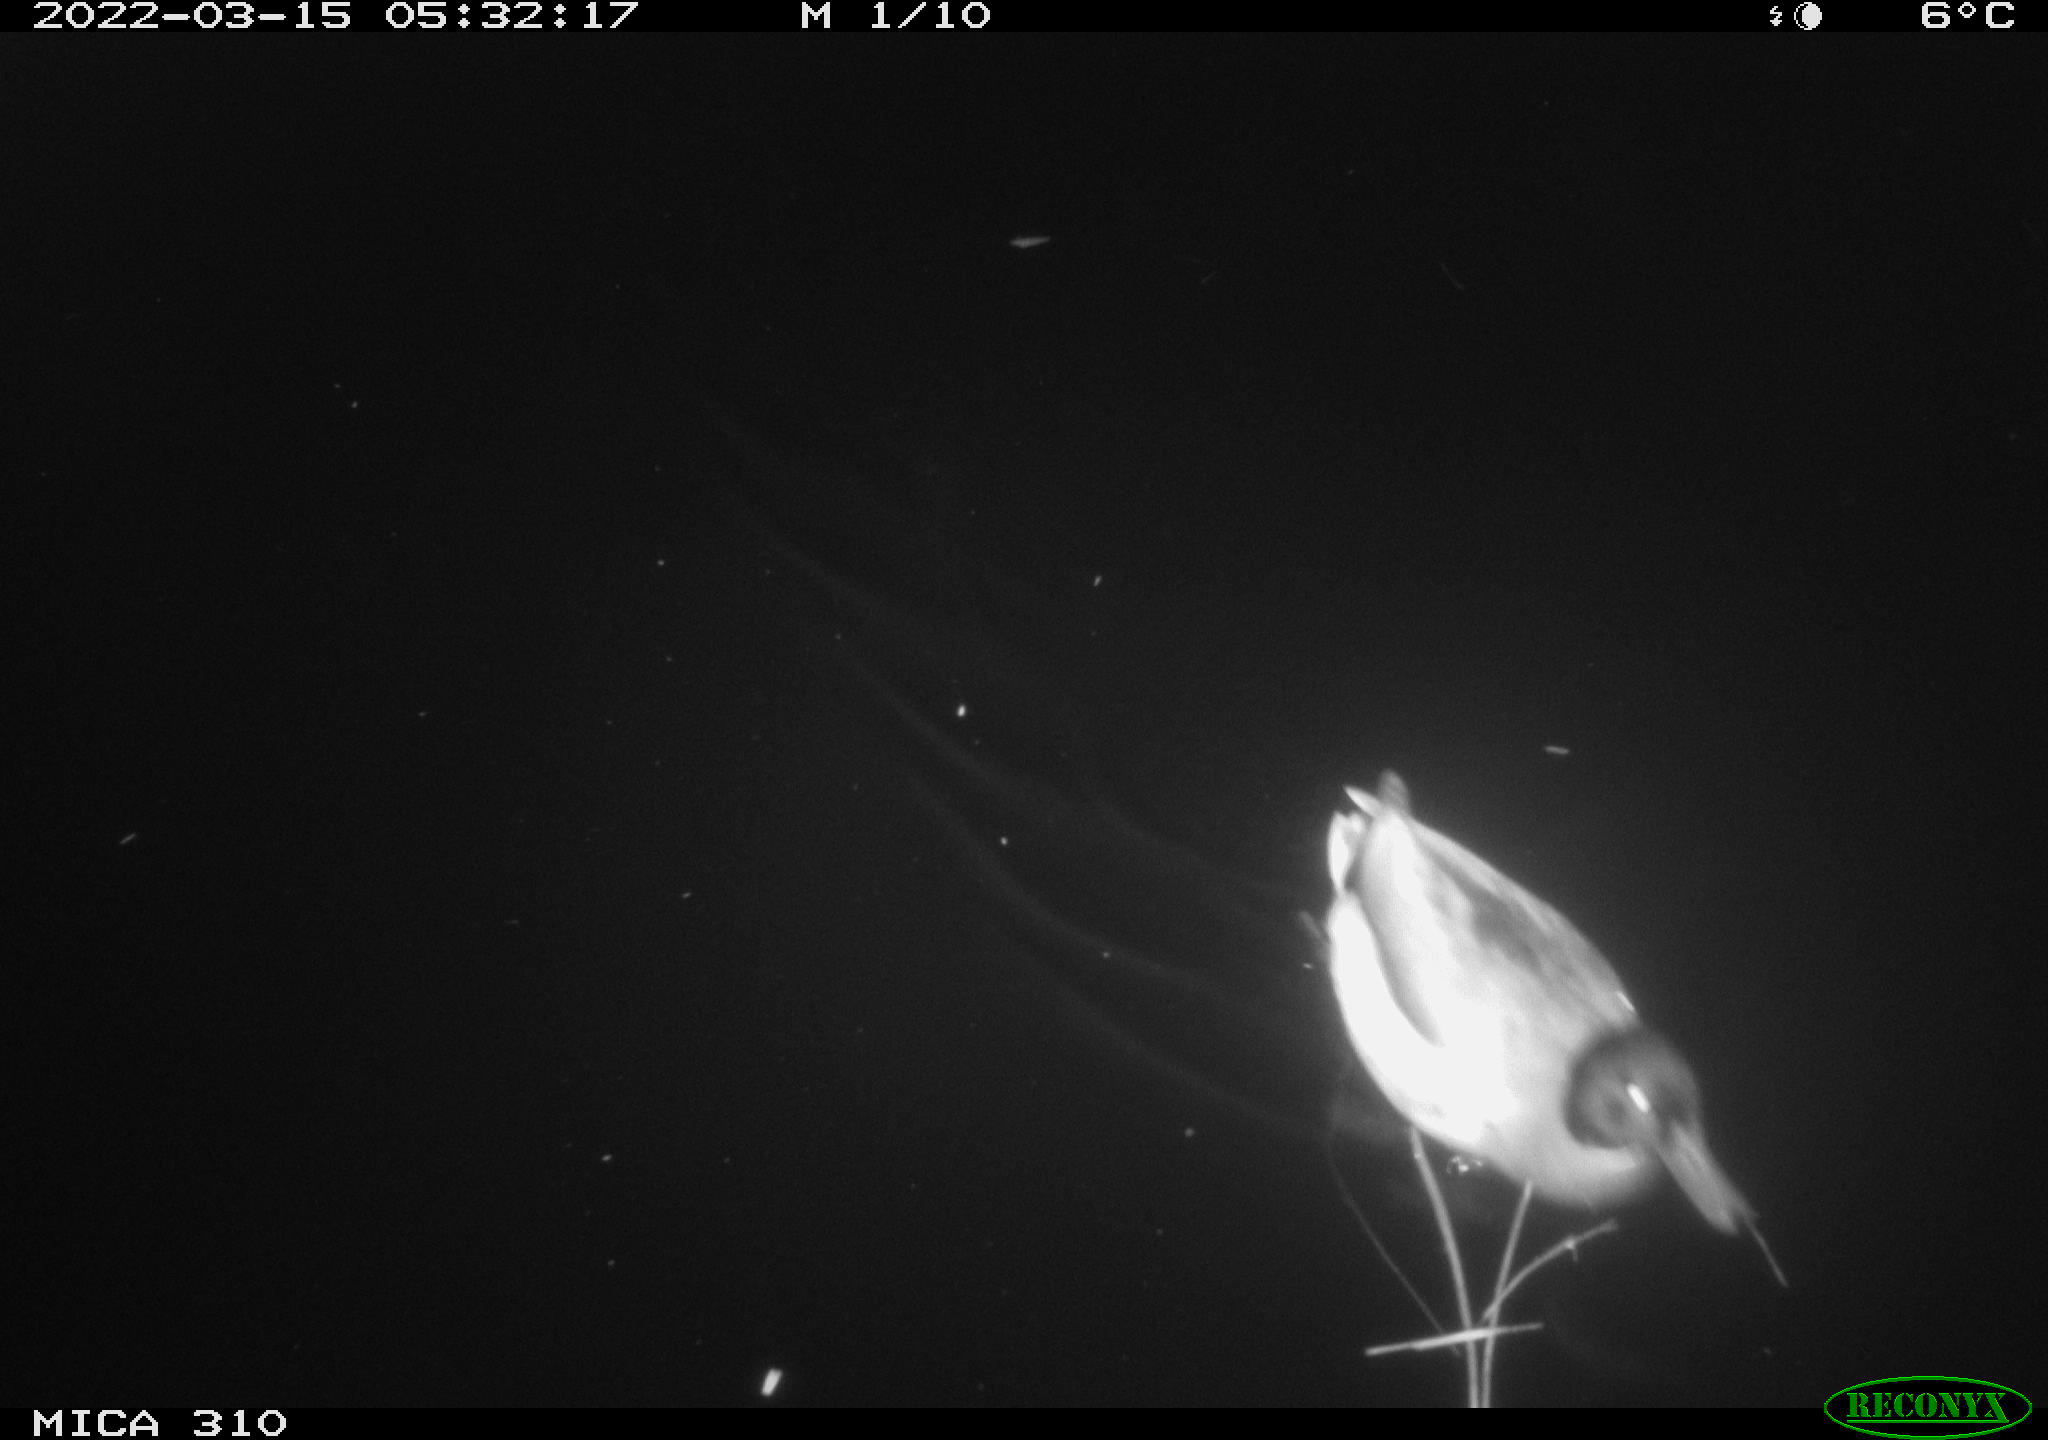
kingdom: Animalia
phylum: Chordata
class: Aves
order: Anseriformes
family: Anatidae
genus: Anas
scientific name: Anas platyrhynchos
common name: Mallard
